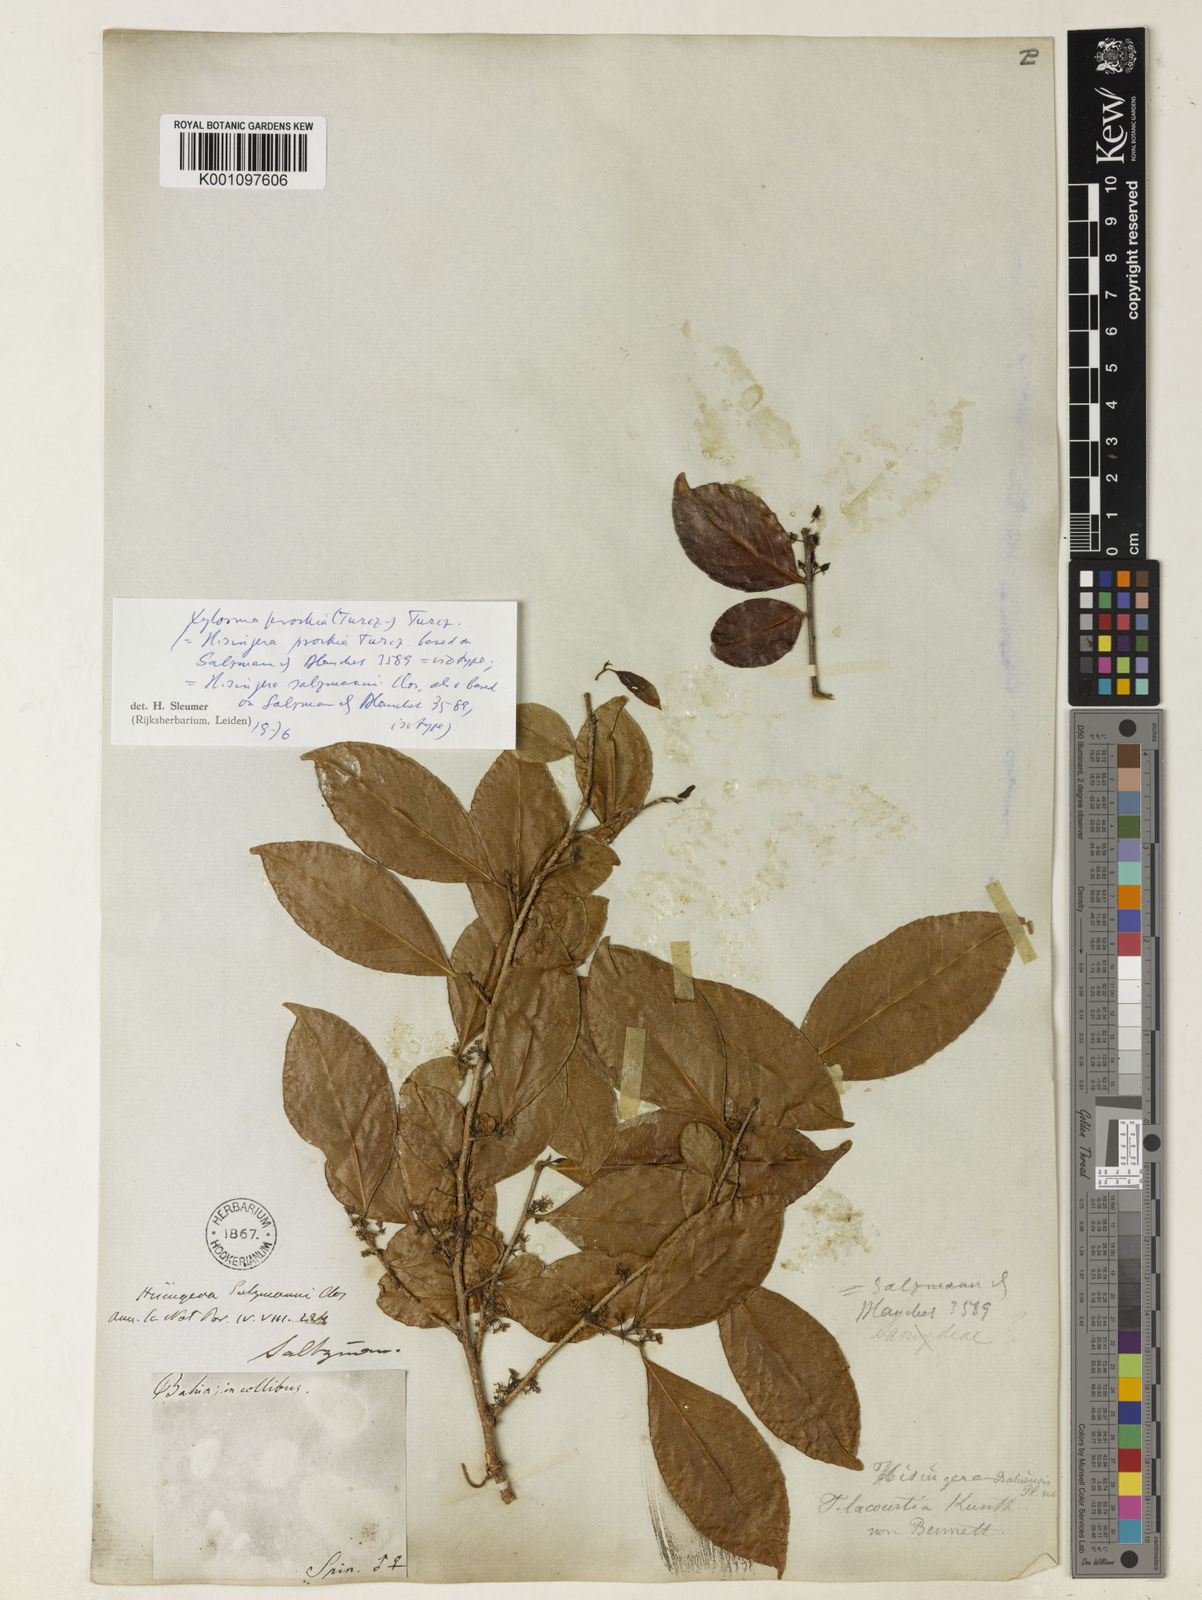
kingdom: Plantae
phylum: Tracheophyta
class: Magnoliopsida
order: Malpighiales
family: Salicaceae
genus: Xylosma
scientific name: Xylosma prockia
